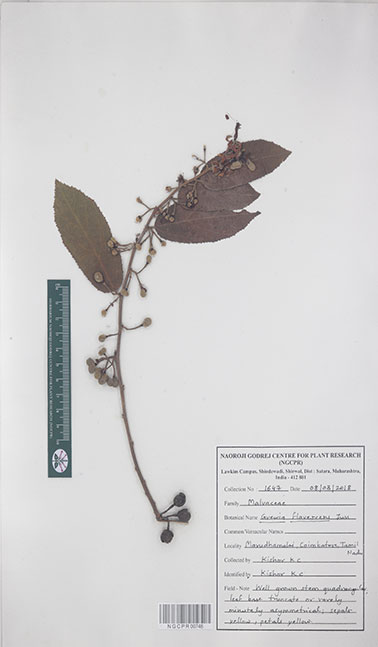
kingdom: Plantae
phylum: Tracheophyta
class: Magnoliopsida
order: Malvales
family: Malvaceae
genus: Grewia
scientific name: Grewia flavescens
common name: Sandpaper raisin
